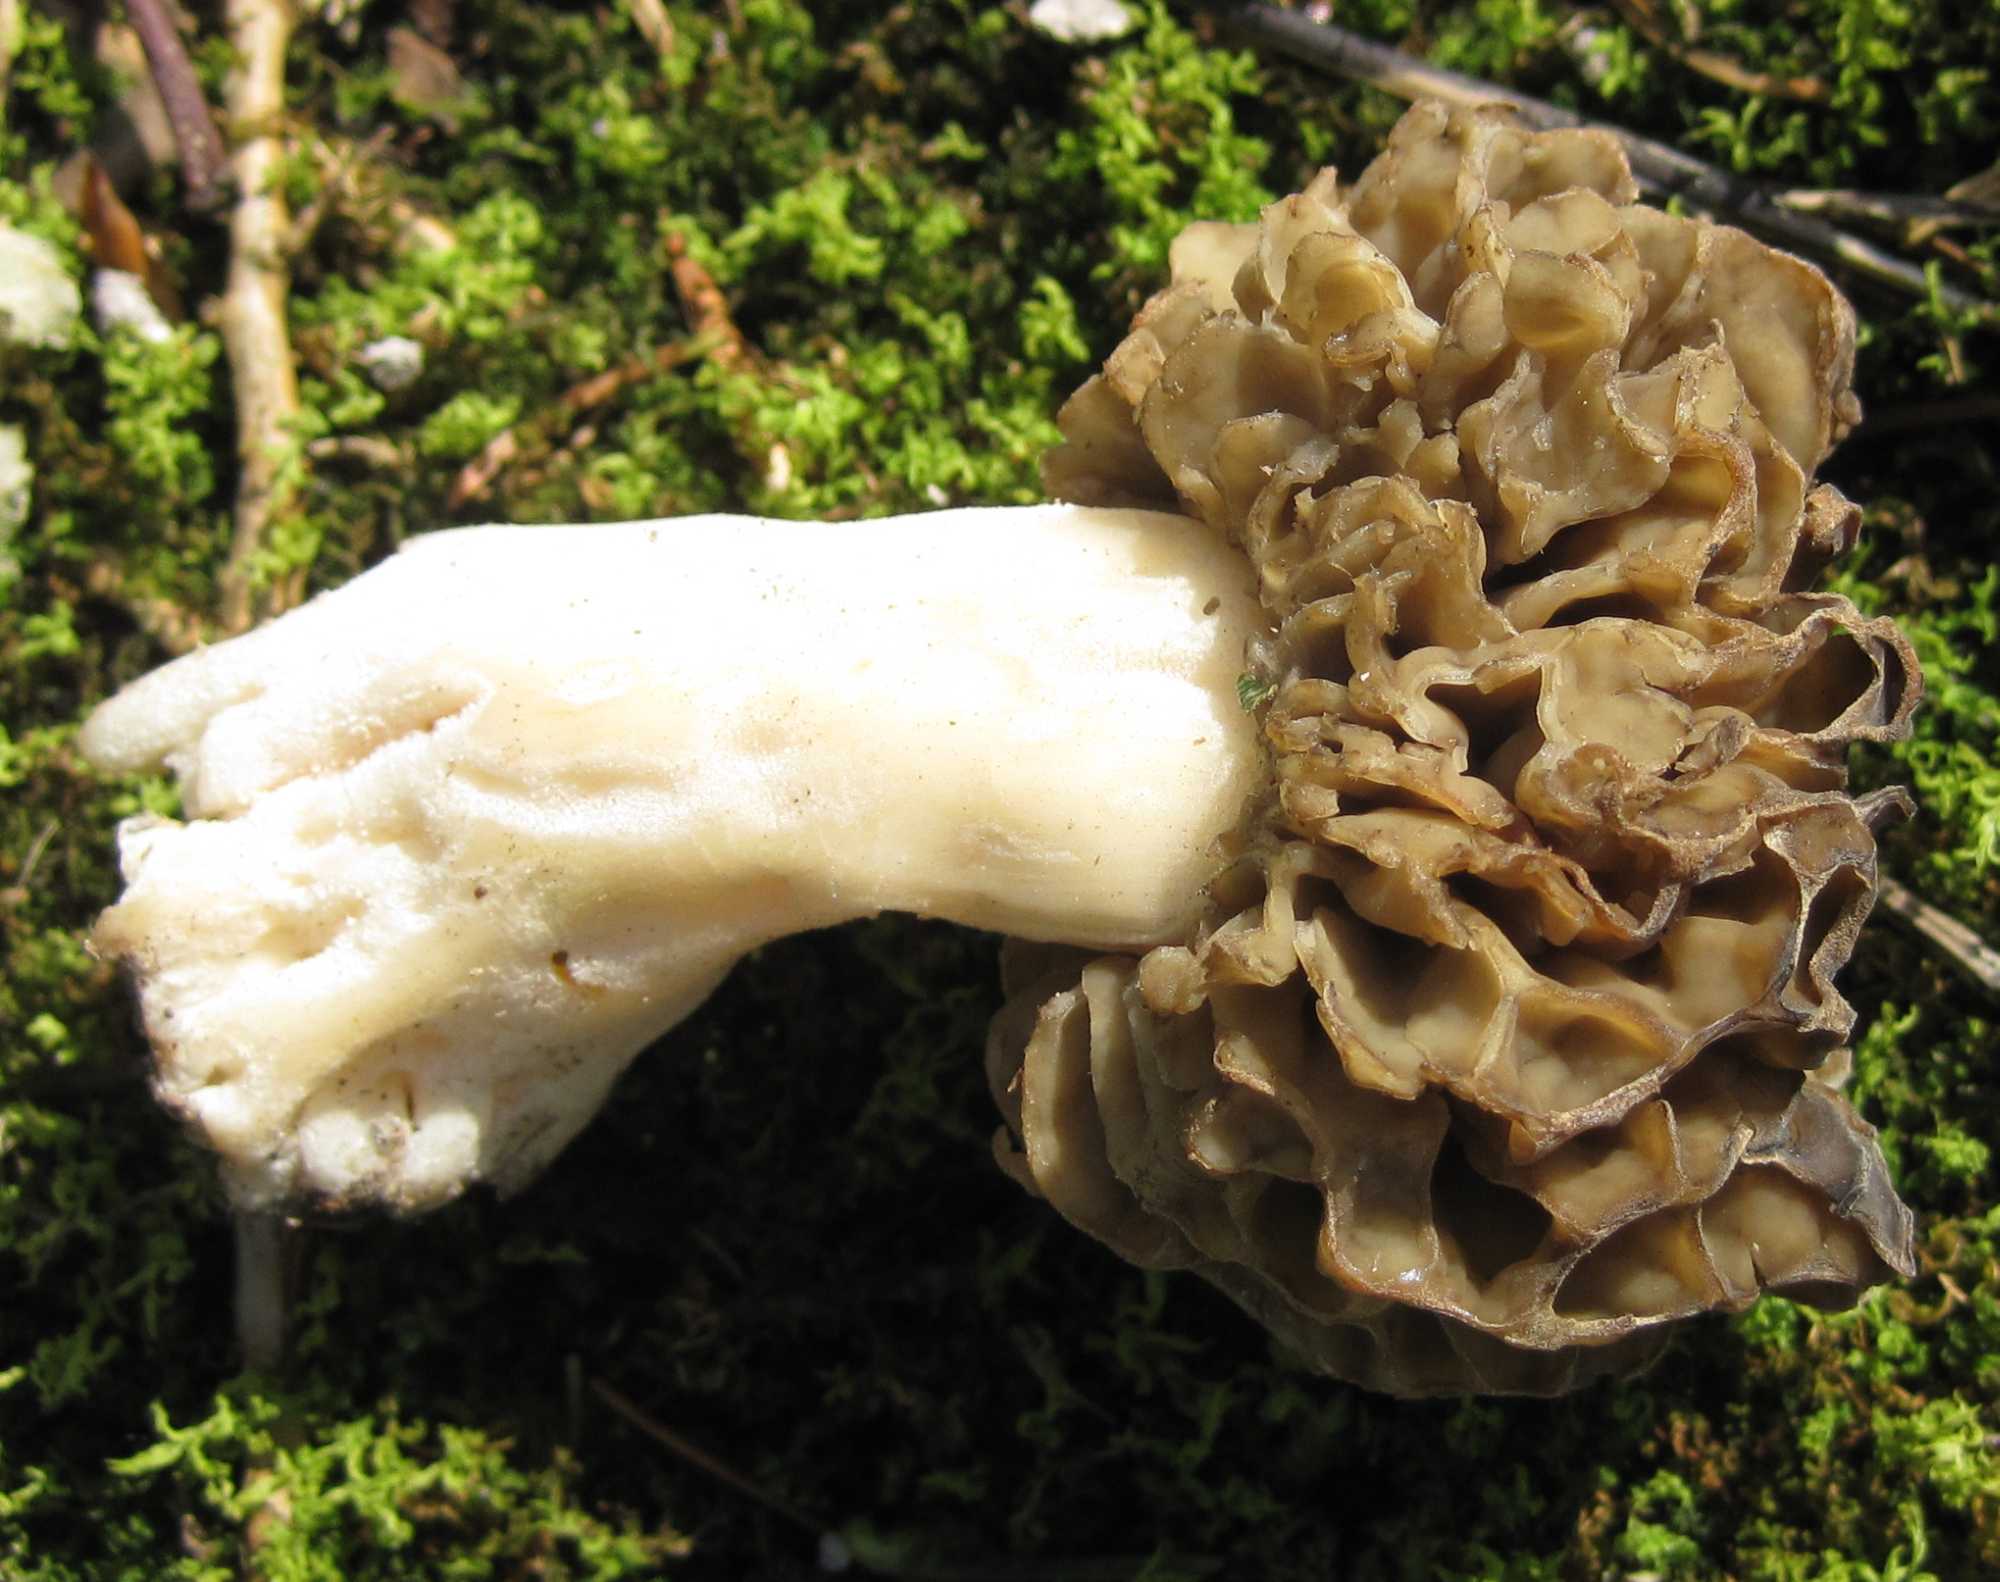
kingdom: Fungi
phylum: Ascomycota
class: Pezizomycetes
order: Pezizales
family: Morchellaceae
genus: Morchella
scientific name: Morchella esculenta
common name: almindelig morkel
